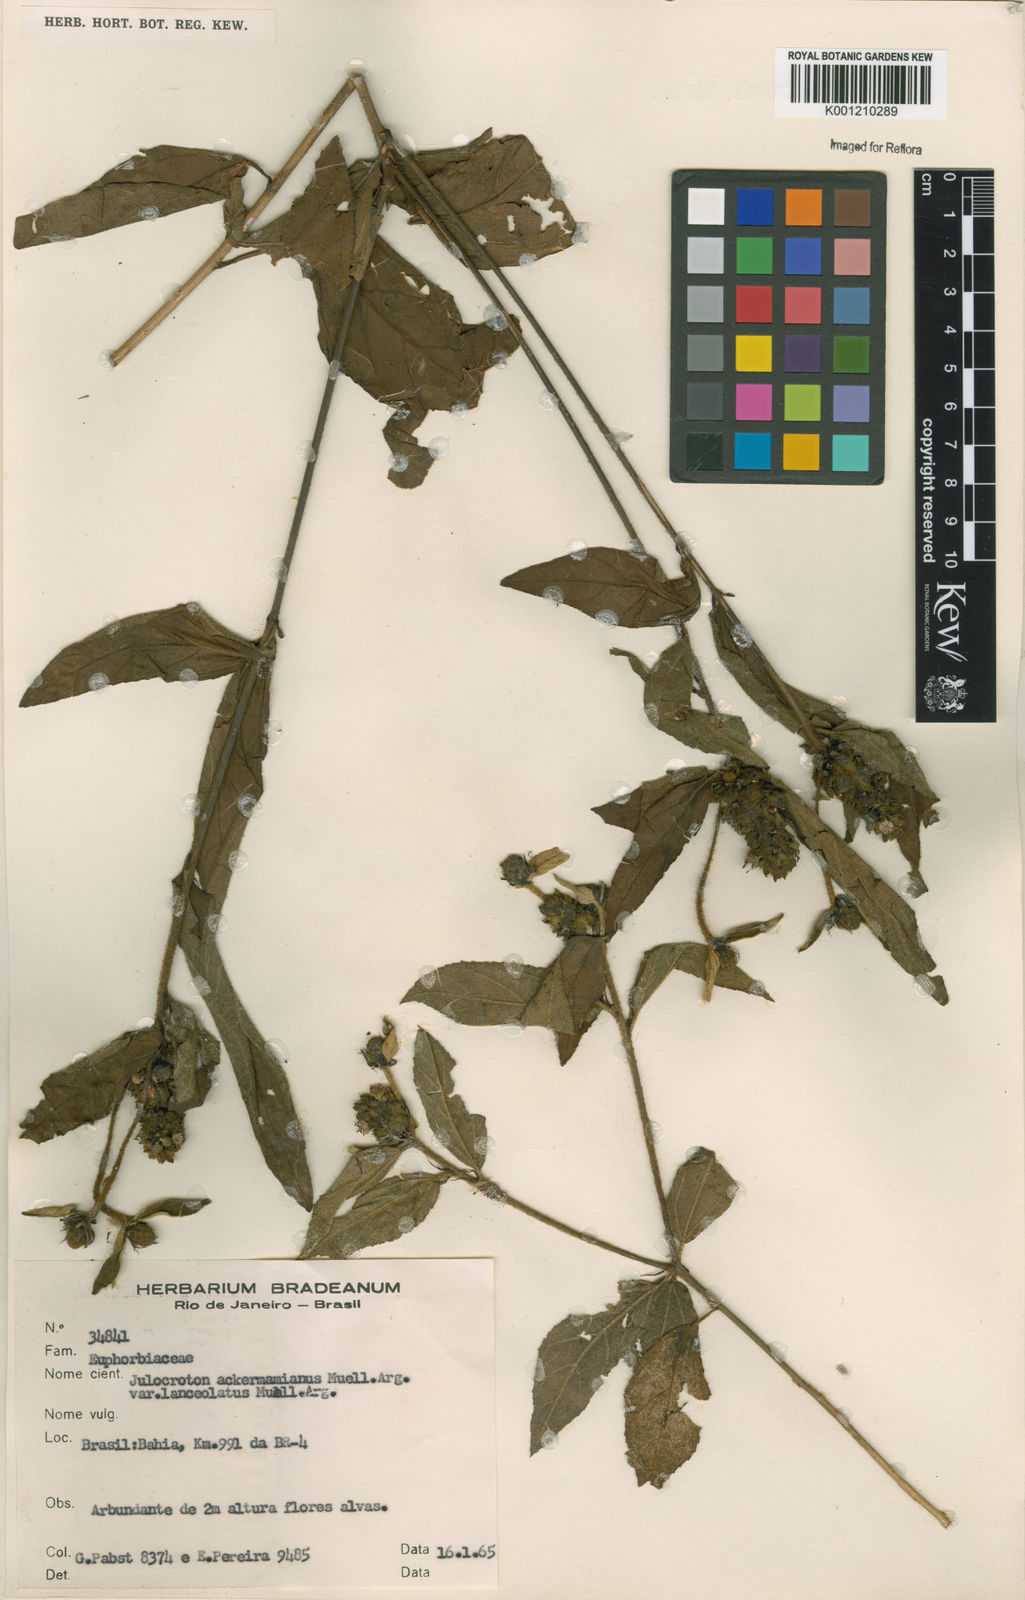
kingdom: Plantae
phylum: Tracheophyta
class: Magnoliopsida
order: Malpighiales
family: Euphorbiaceae
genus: Croton
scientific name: Croton
